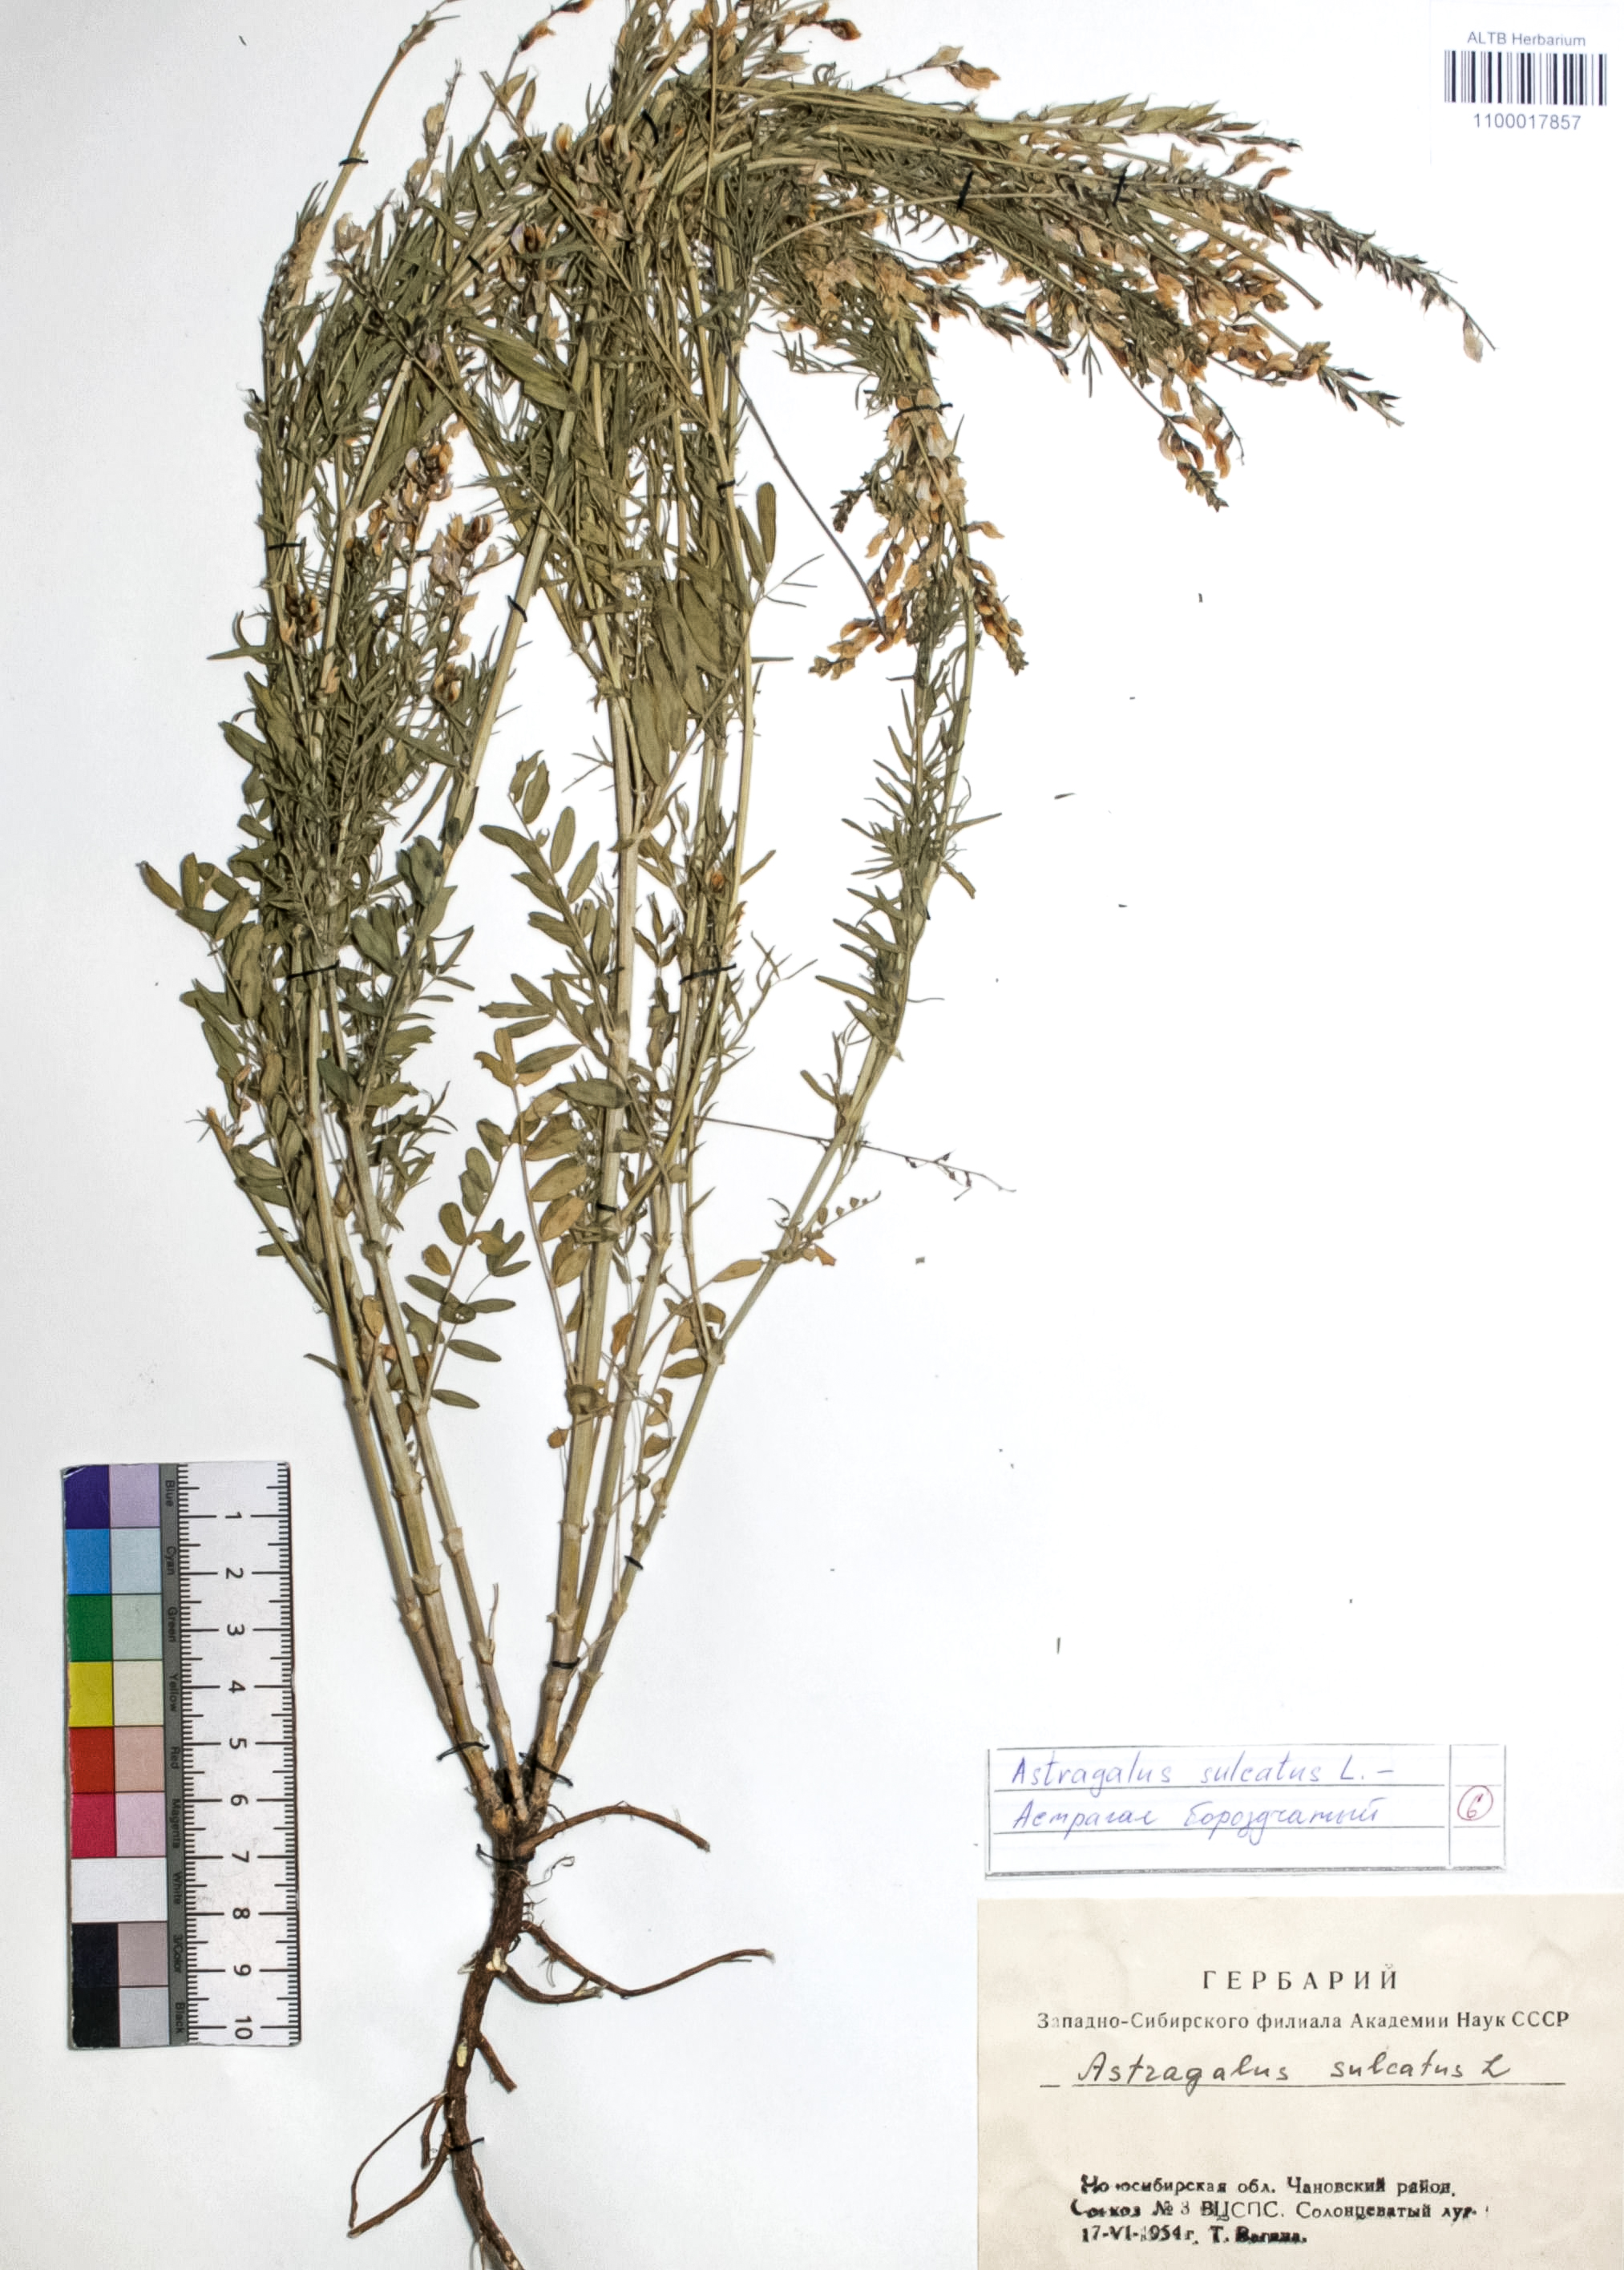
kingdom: Plantae
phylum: Tracheophyta
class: Magnoliopsida
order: Fabales
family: Fabaceae
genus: Astragalus
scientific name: Astragalus sulcatus
